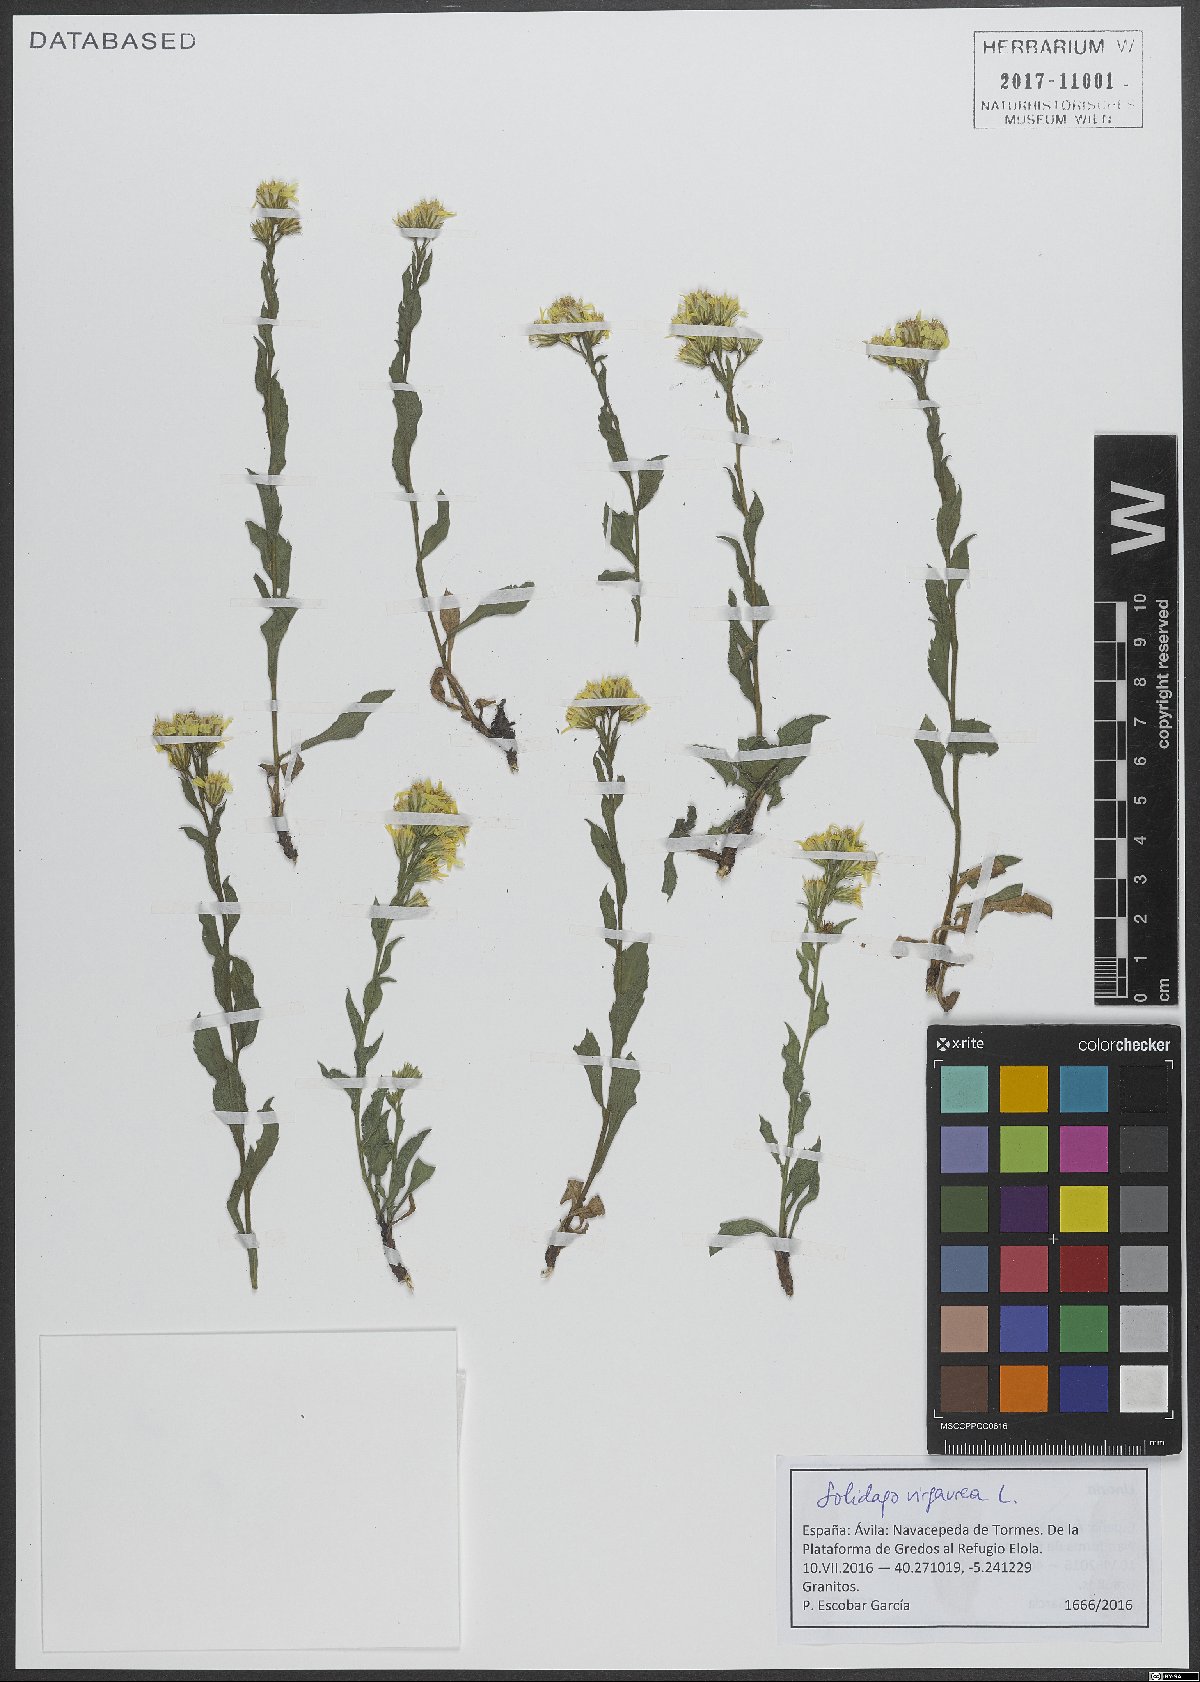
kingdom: Plantae
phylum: Tracheophyta
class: Magnoliopsida
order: Asterales
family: Asteraceae
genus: Solidago
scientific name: Solidago virgaurea
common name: Goldenrod
